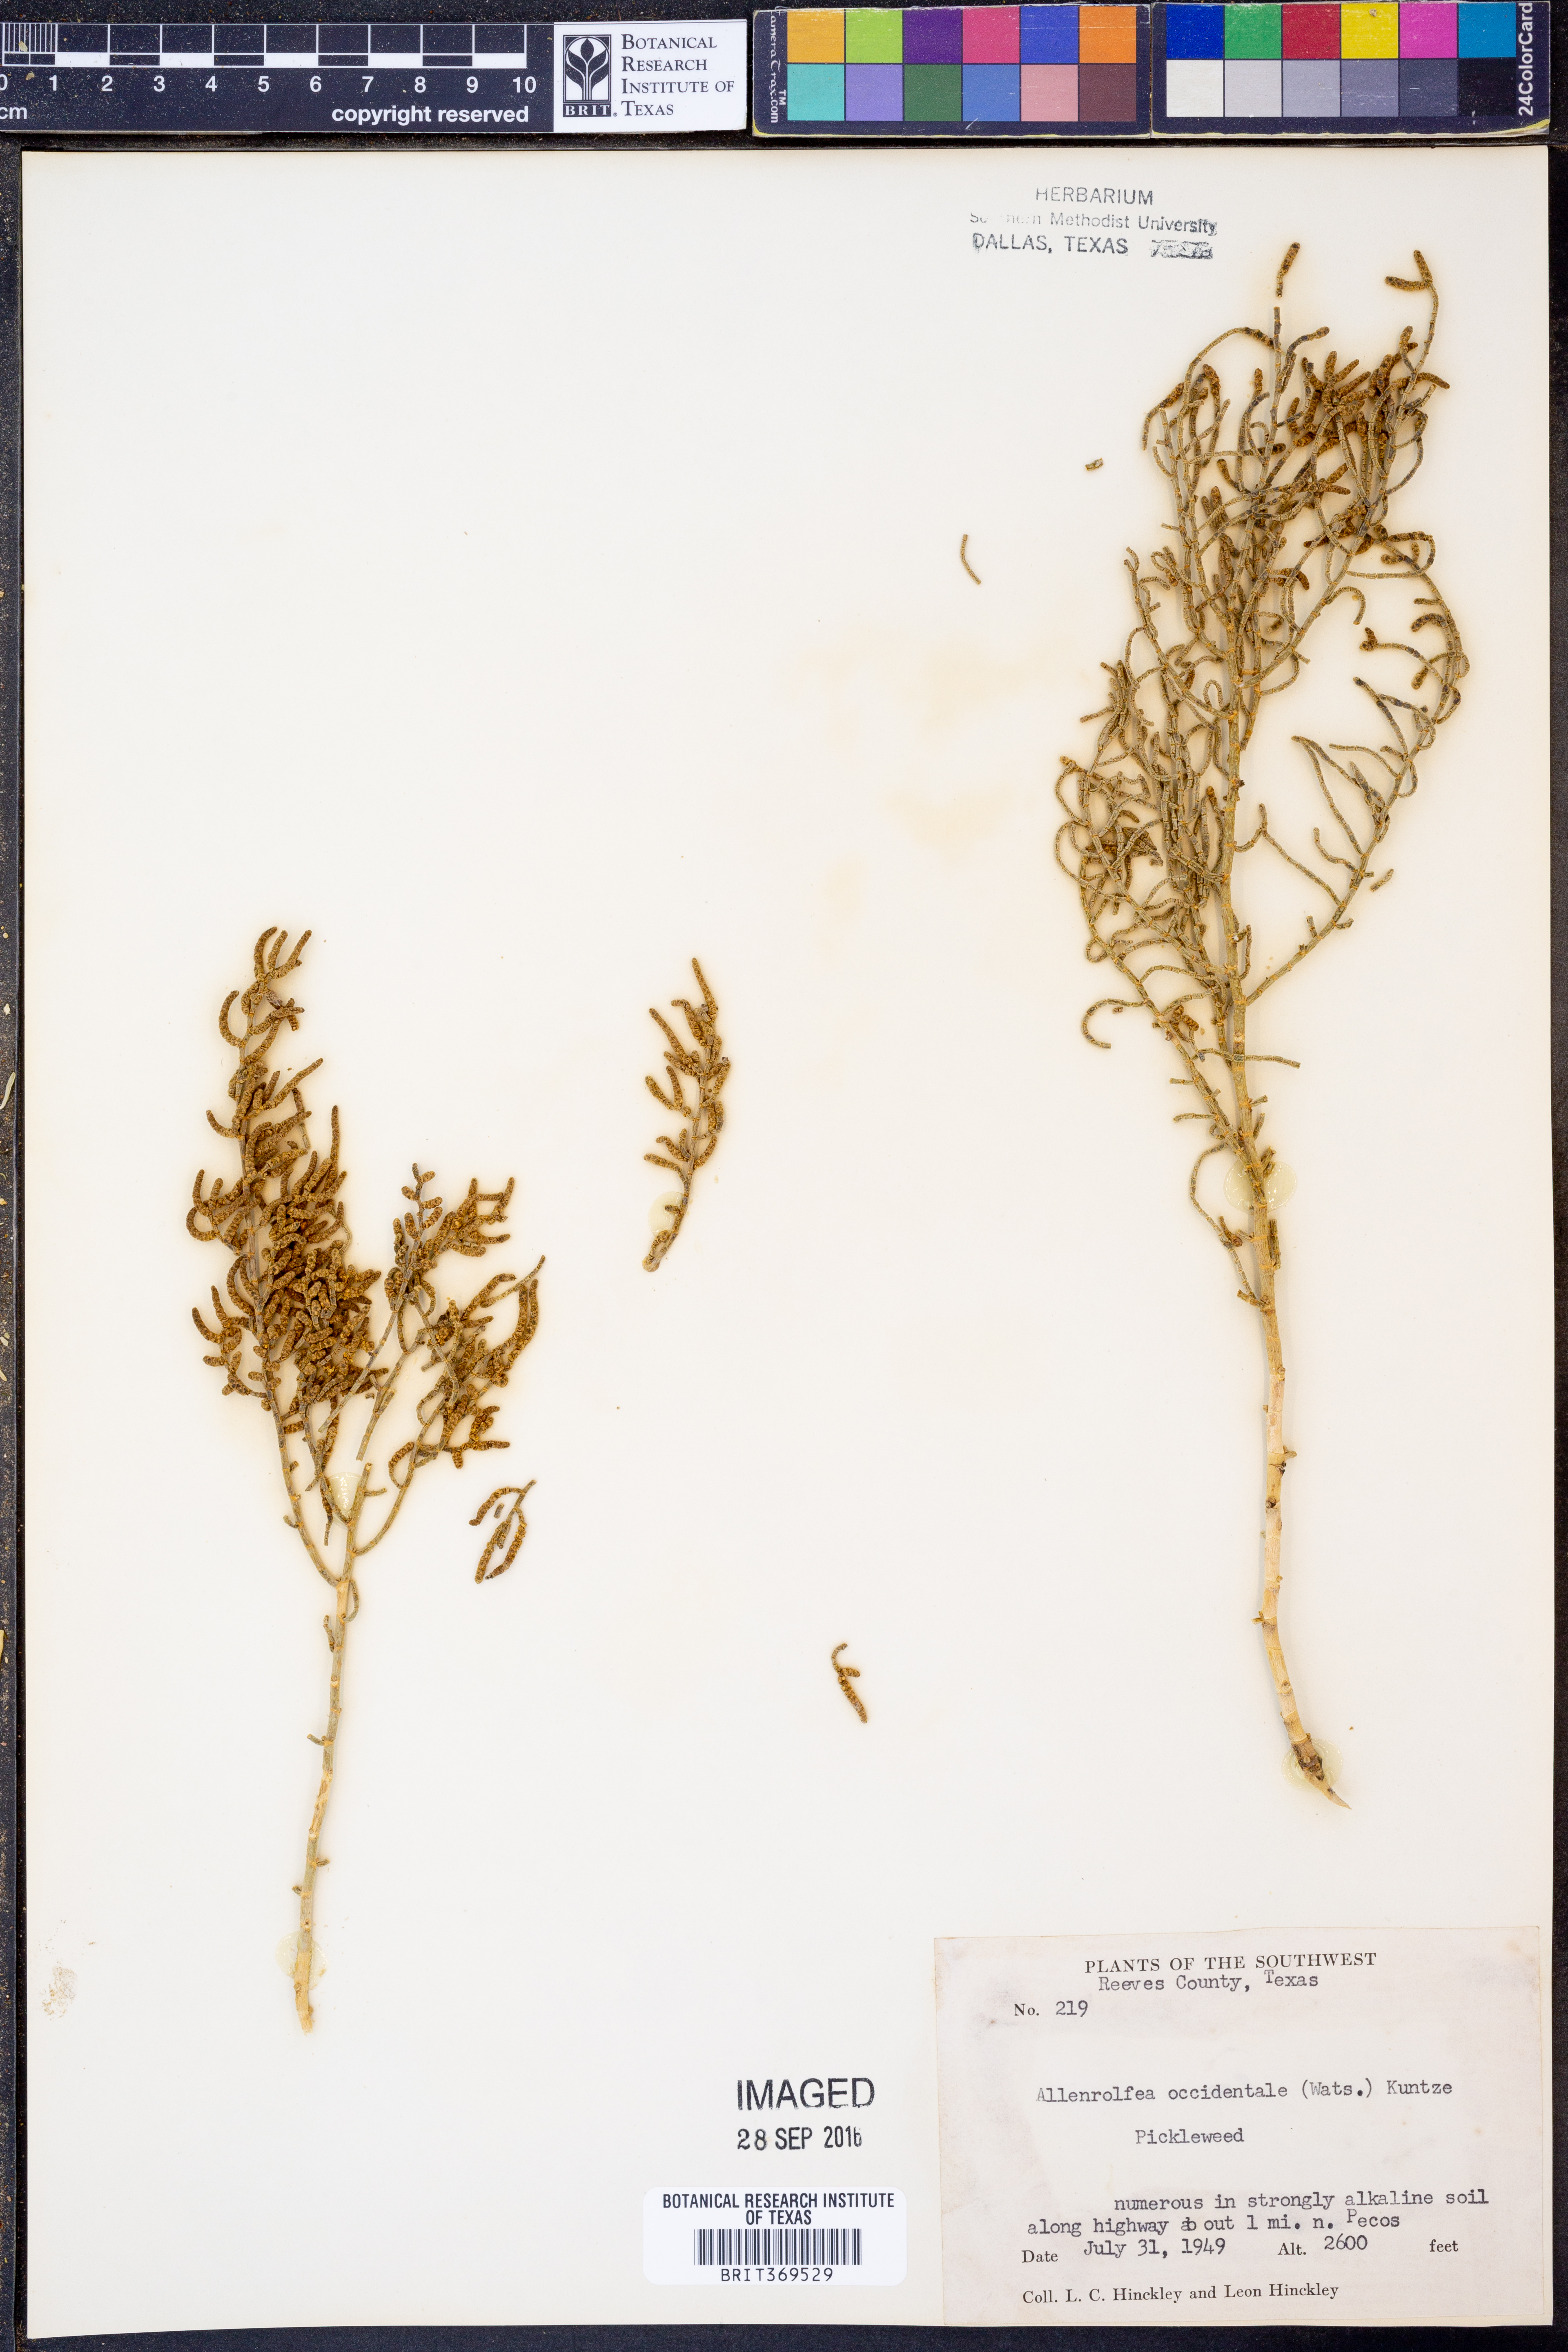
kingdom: Plantae
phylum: Tracheophyta
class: Magnoliopsida
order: Caryophyllales
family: Amaranthaceae
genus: Allenrolfea
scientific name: Allenrolfea occidentalis
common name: Iodine-bush
